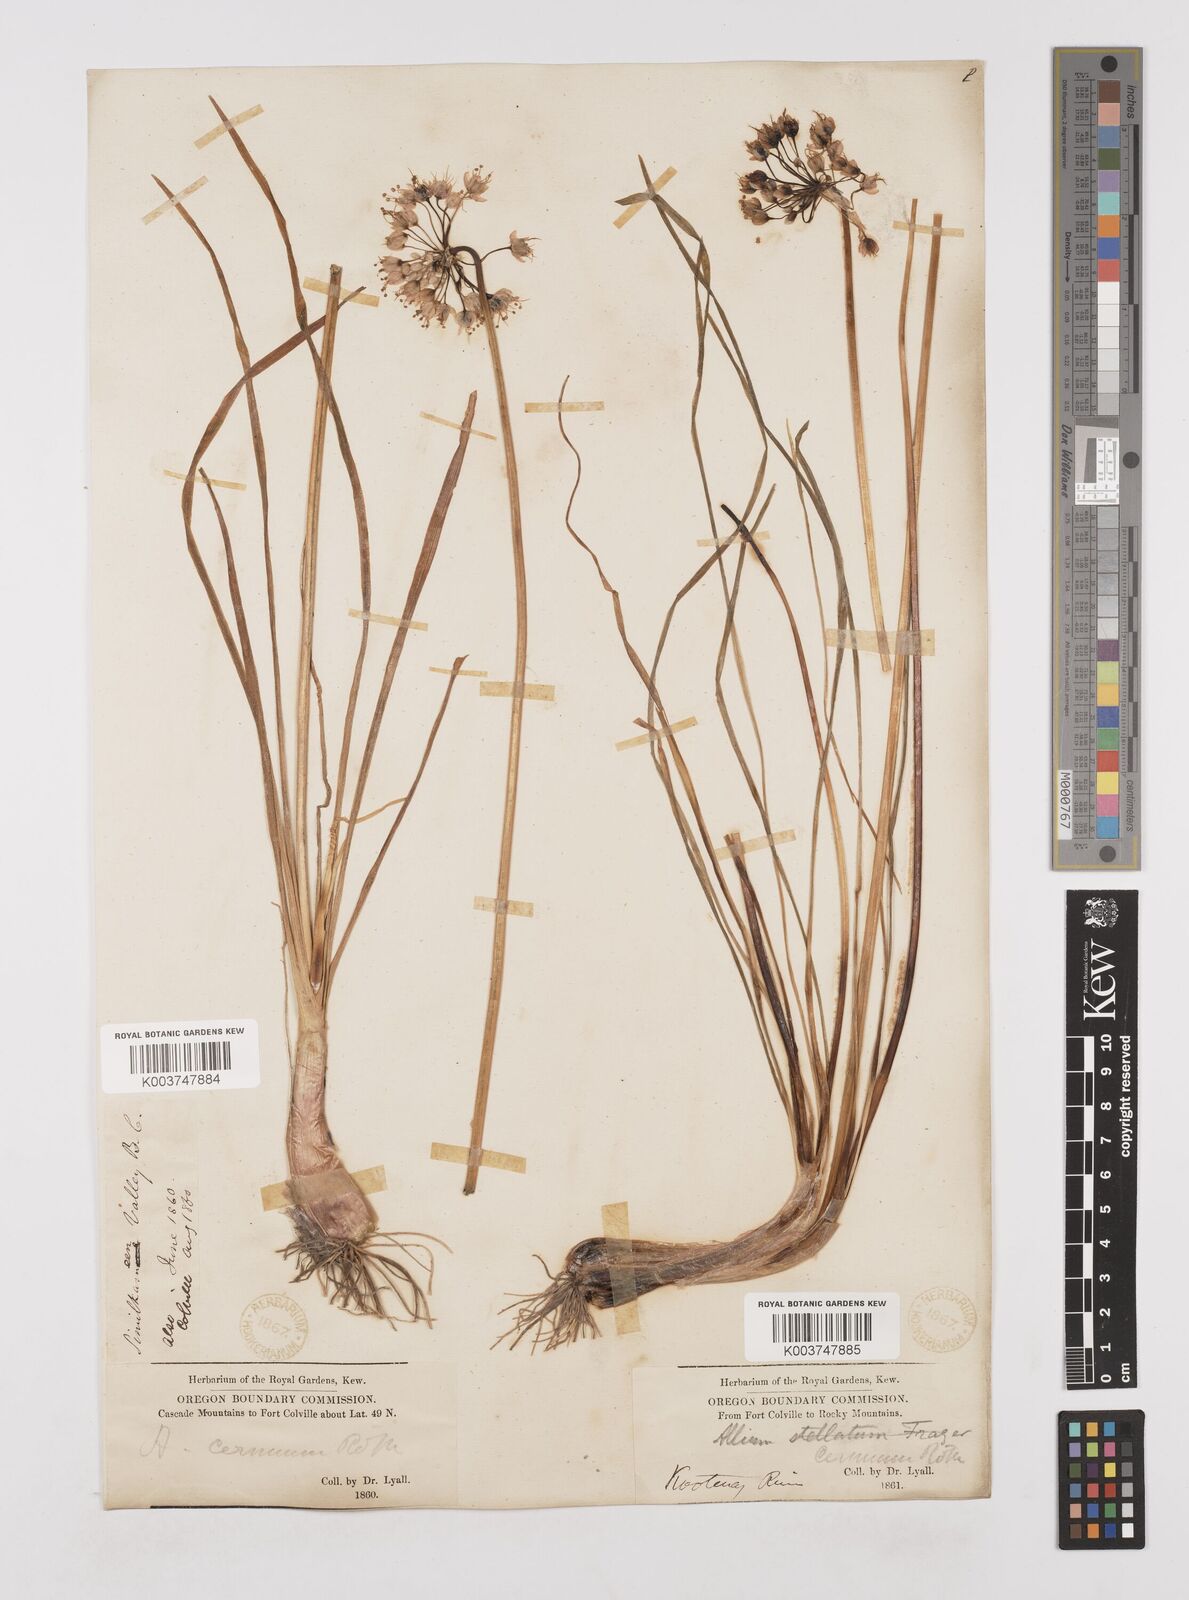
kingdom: Plantae
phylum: Tracheophyta
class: Liliopsida
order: Asparagales
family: Amaryllidaceae
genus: Allium
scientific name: Allium cernuum
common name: Nodding onion
